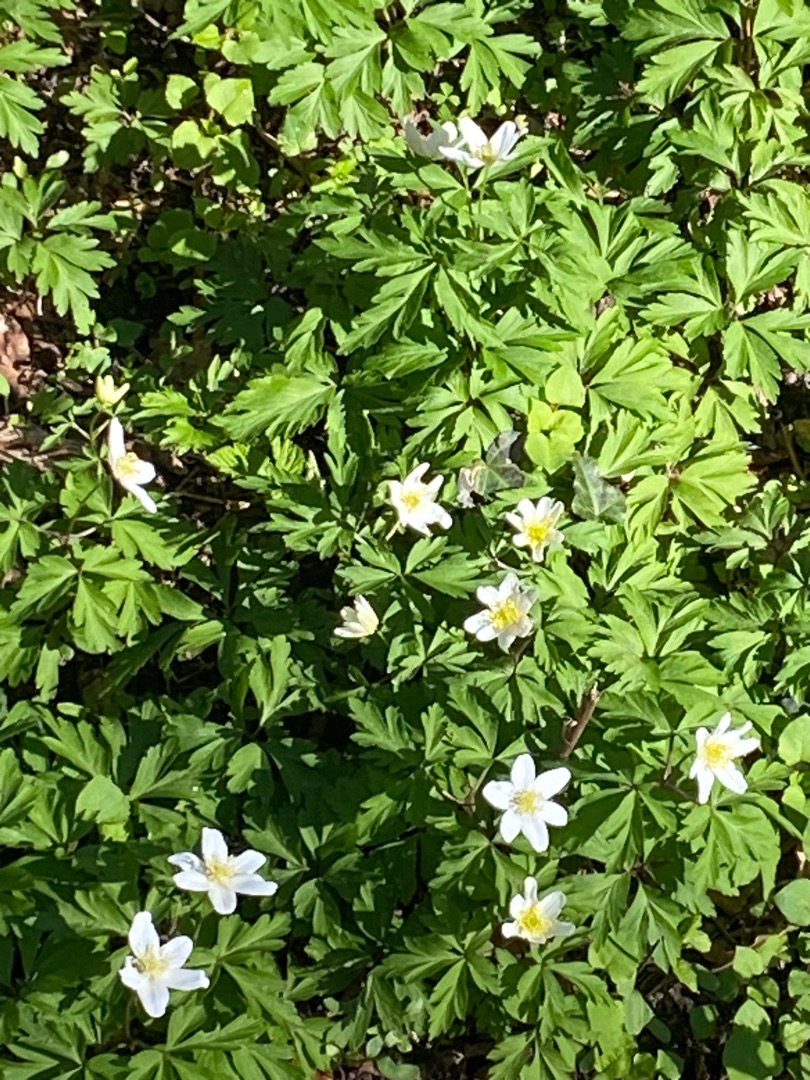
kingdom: Plantae
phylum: Tracheophyta
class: Magnoliopsida
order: Ranunculales
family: Ranunculaceae
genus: Anemone
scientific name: Anemone nemorosa
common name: Hvid anemone
